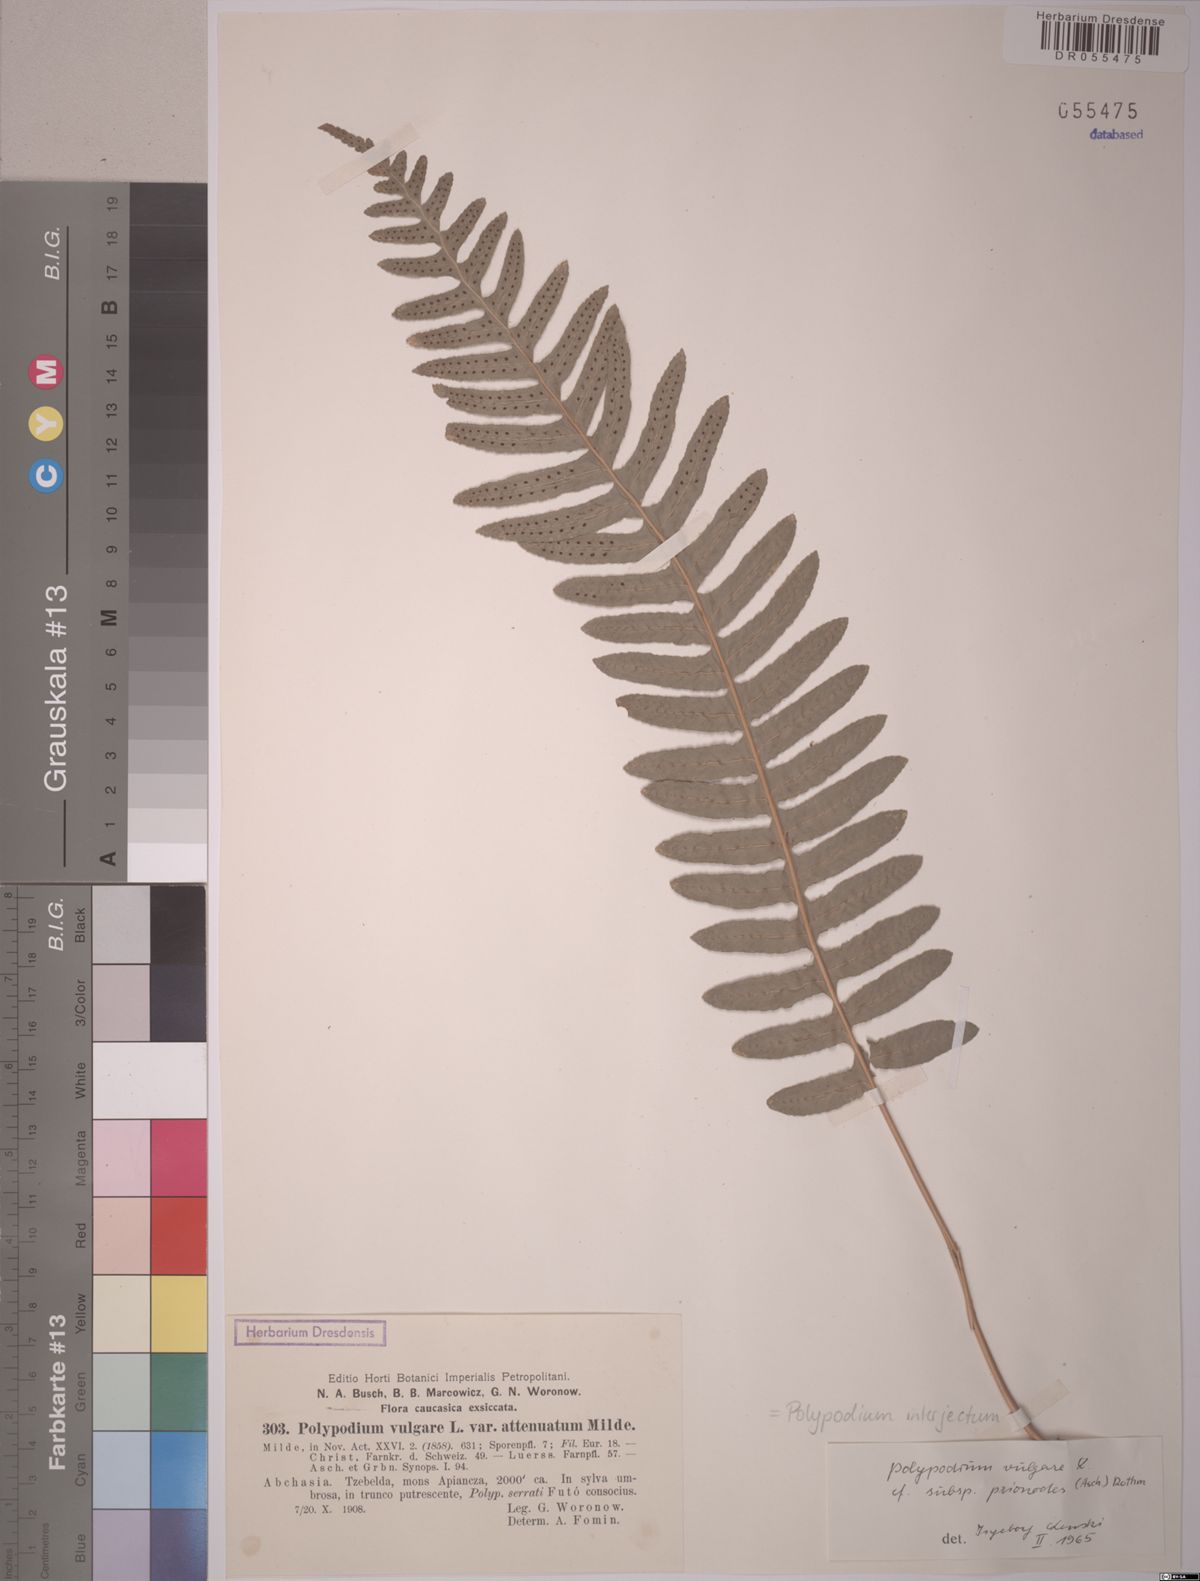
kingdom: Plantae
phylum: Tracheophyta
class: Polypodiopsida
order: Polypodiales
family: Polypodiaceae
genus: Polypodium
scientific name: Polypodium interjectum
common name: Intermediate polypody
